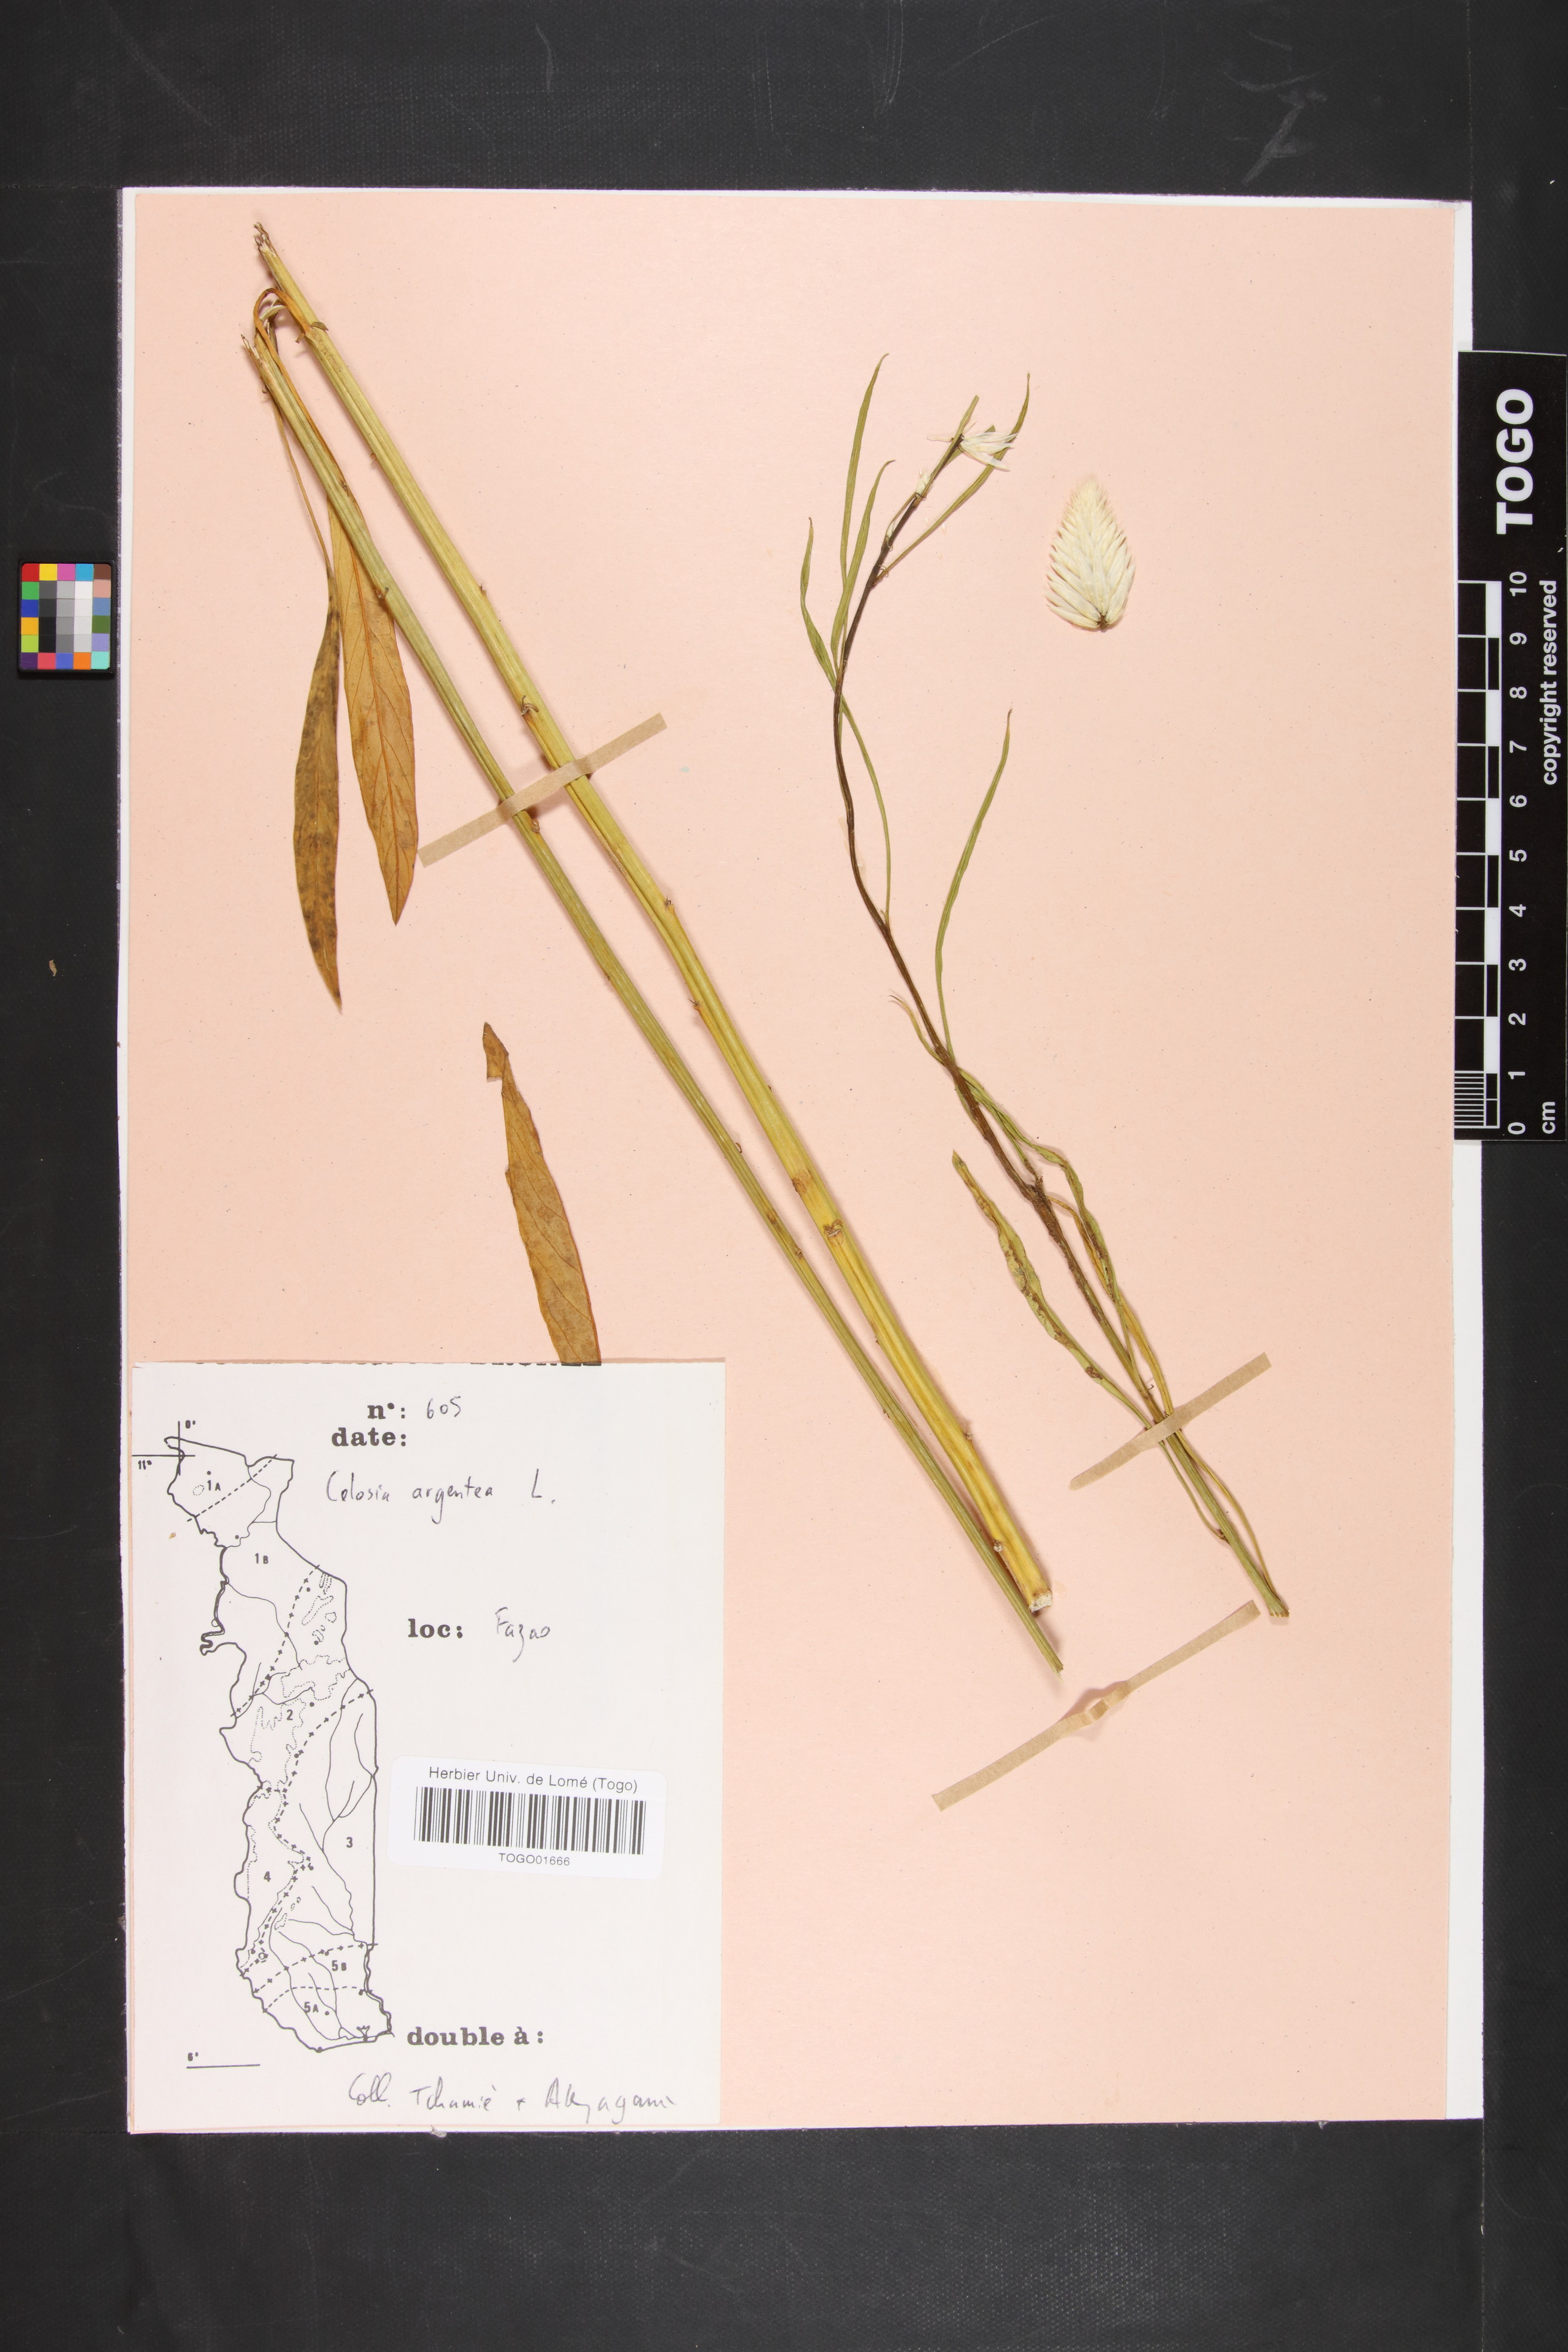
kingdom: Plantae
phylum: Tracheophyta
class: Magnoliopsida
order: Caryophyllales
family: Amaranthaceae
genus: Celosia
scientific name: Celosia argentea
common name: Feather cockscomb
